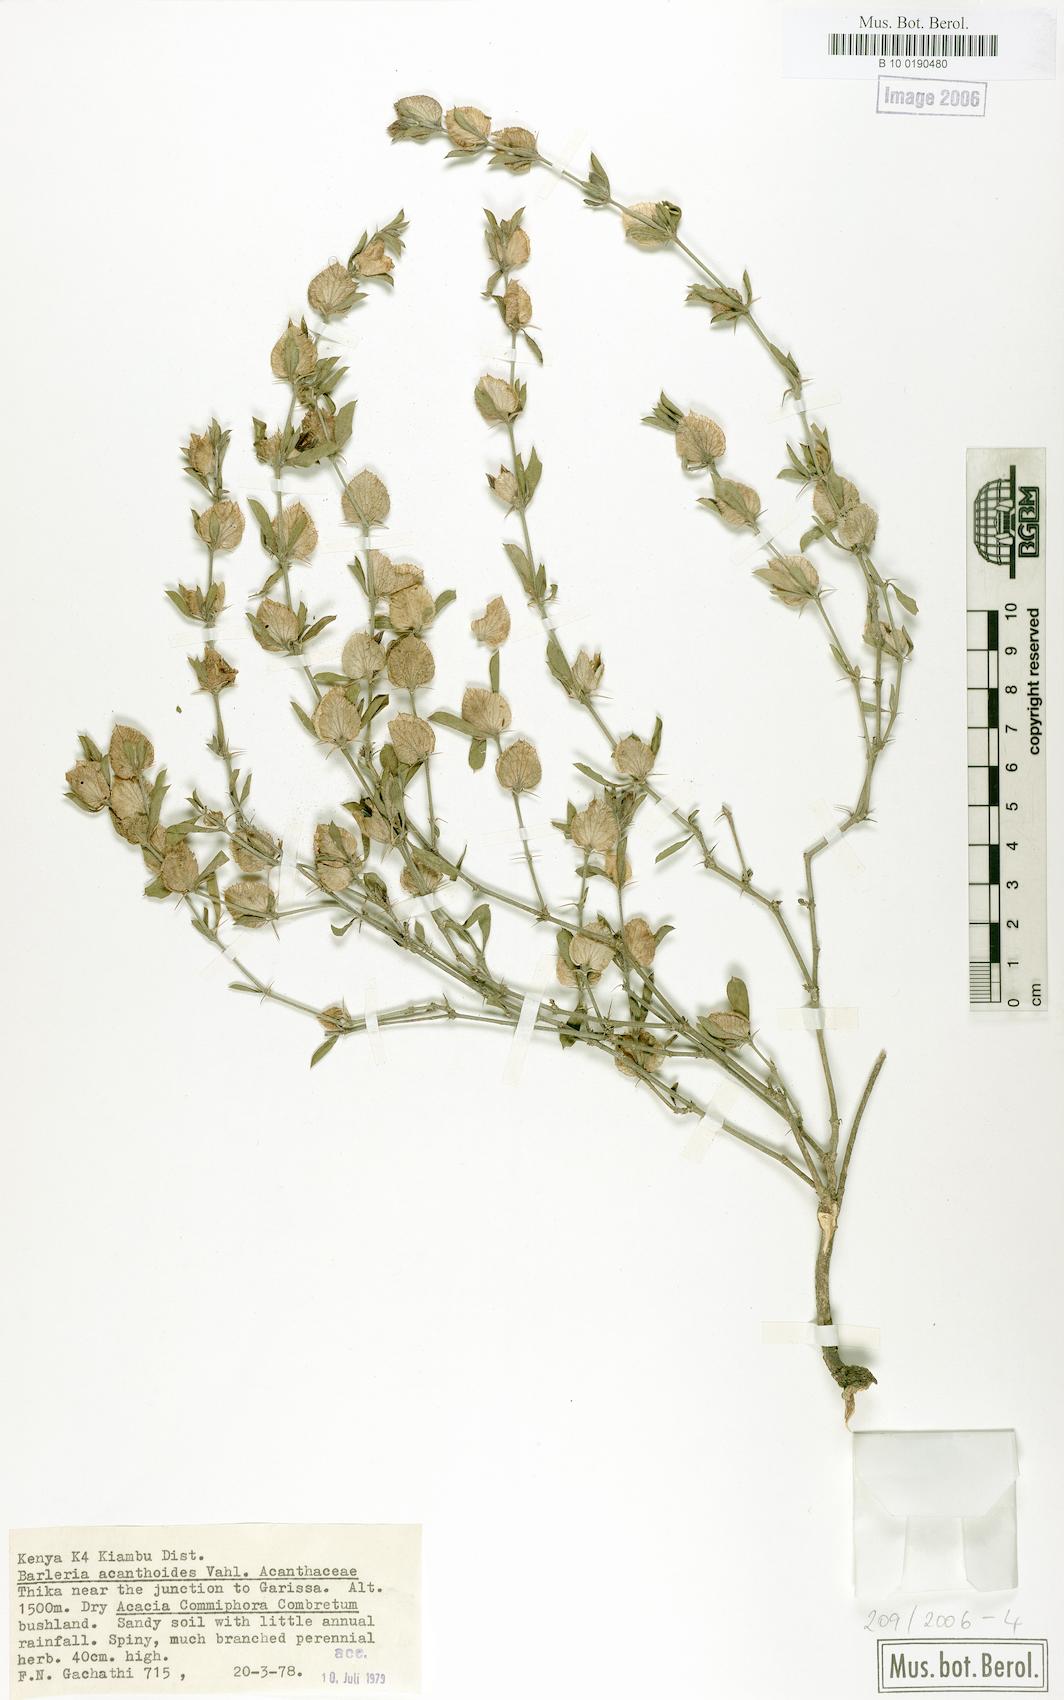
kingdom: Plantae
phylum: Tracheophyta
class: Magnoliopsida
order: Lamiales
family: Acanthaceae
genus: Barleria
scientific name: Barleria gracilispina
